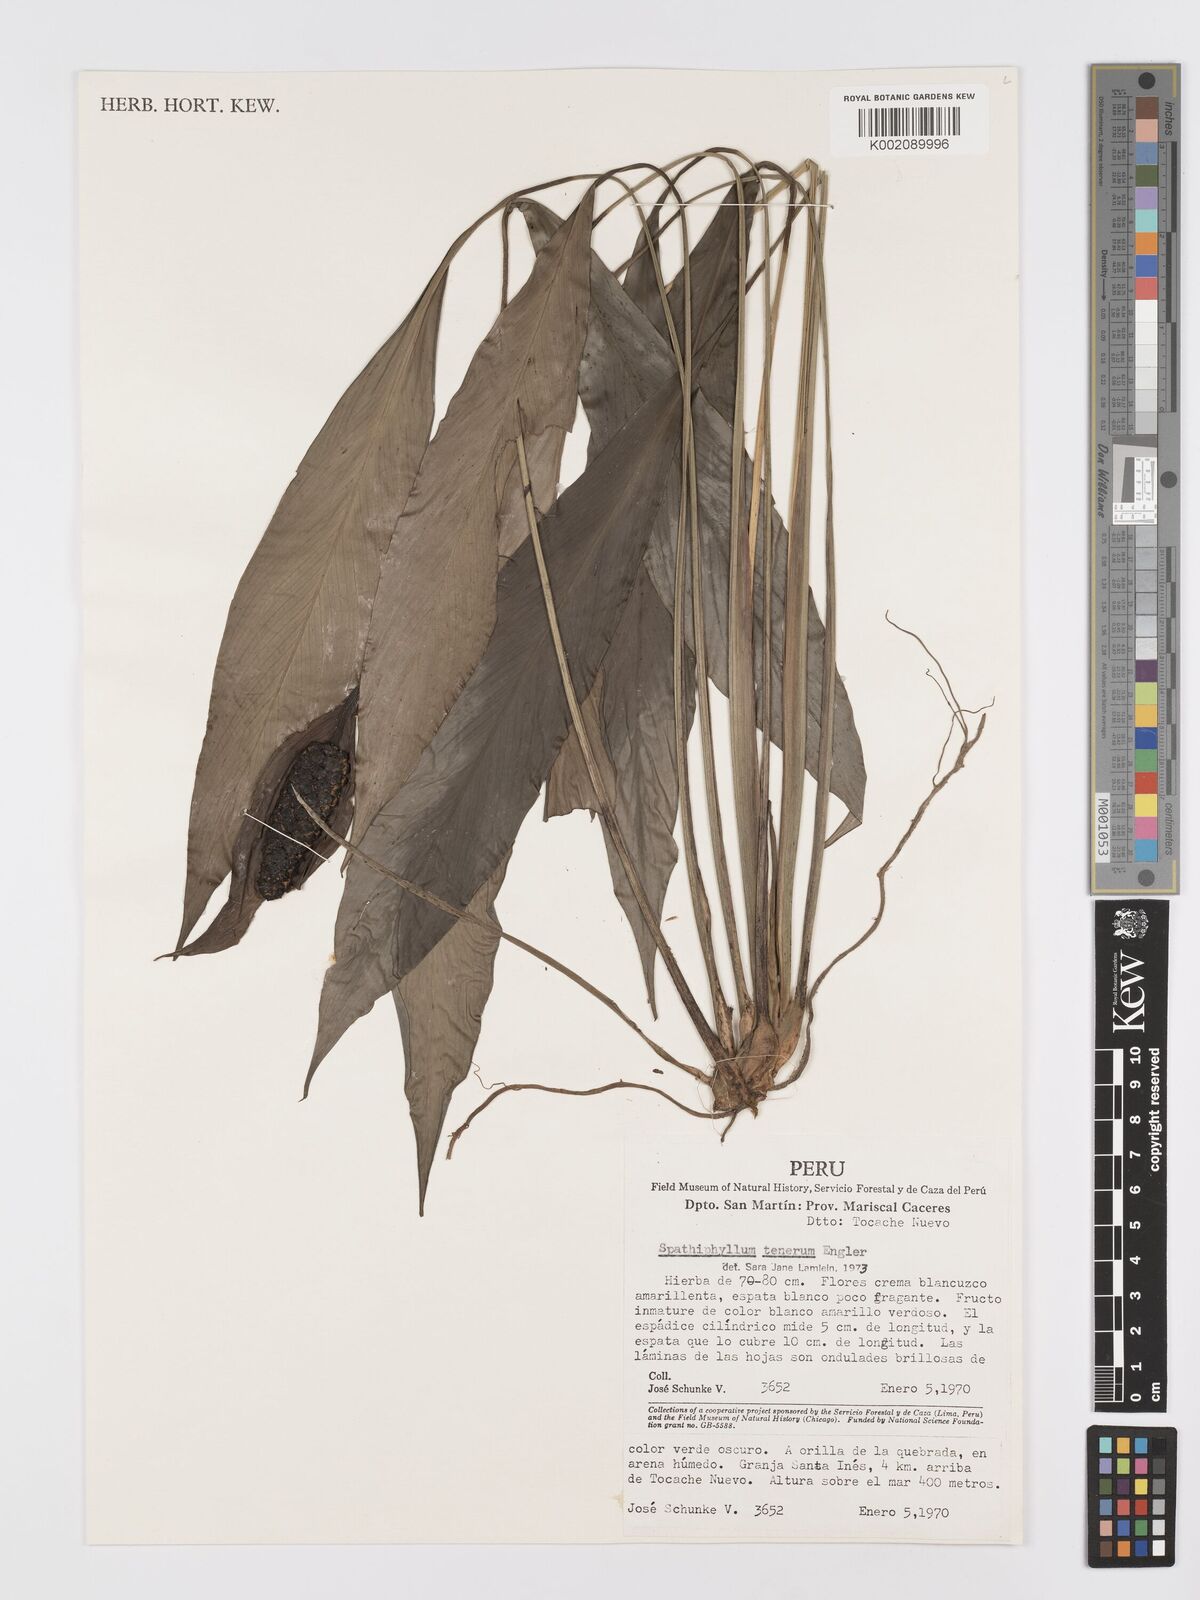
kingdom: Plantae
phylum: Tracheophyta
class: Liliopsida
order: Alismatales
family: Araceae
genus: Spathiphyllum
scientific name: Spathiphyllum tenerum
